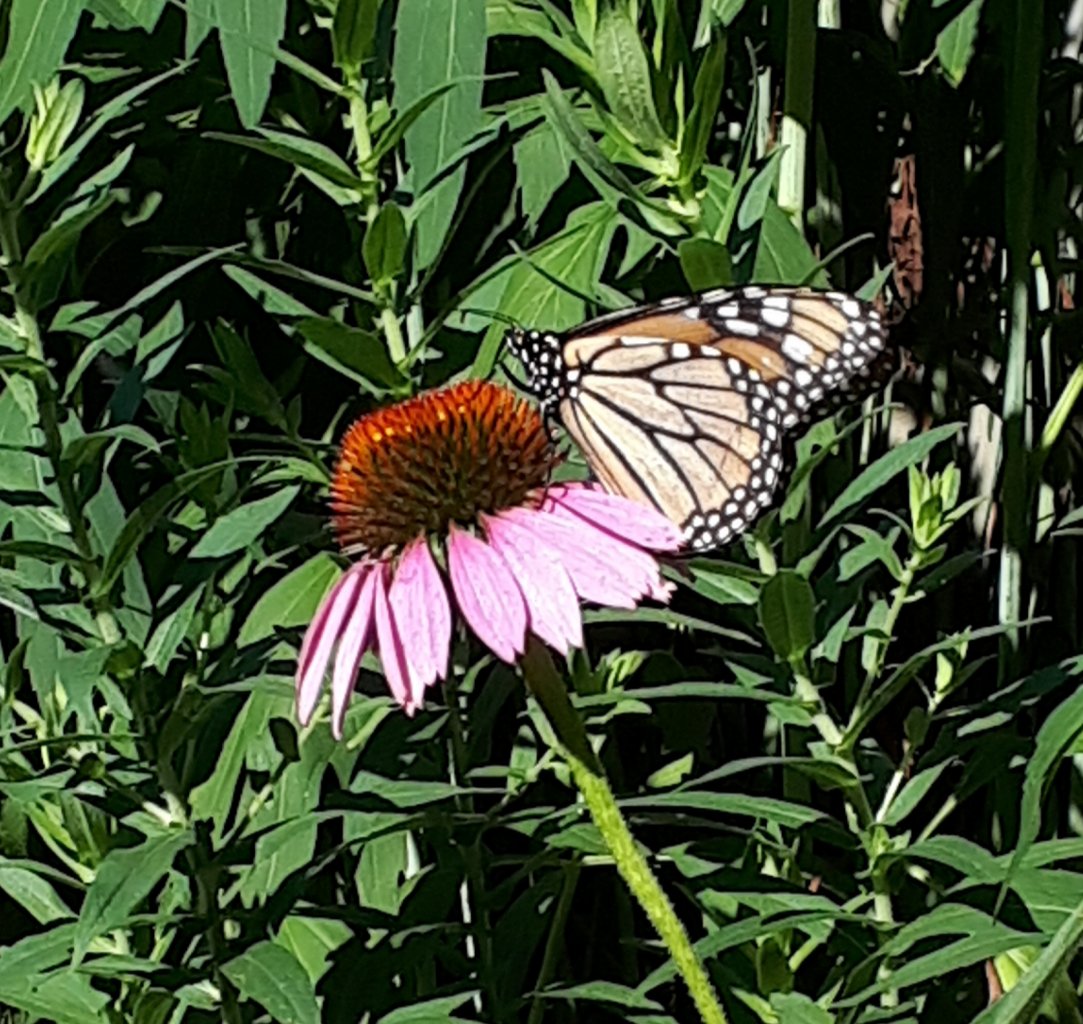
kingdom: Animalia
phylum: Arthropoda
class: Insecta
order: Lepidoptera
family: Nymphalidae
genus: Danaus
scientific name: Danaus plexippus
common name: Monarch
